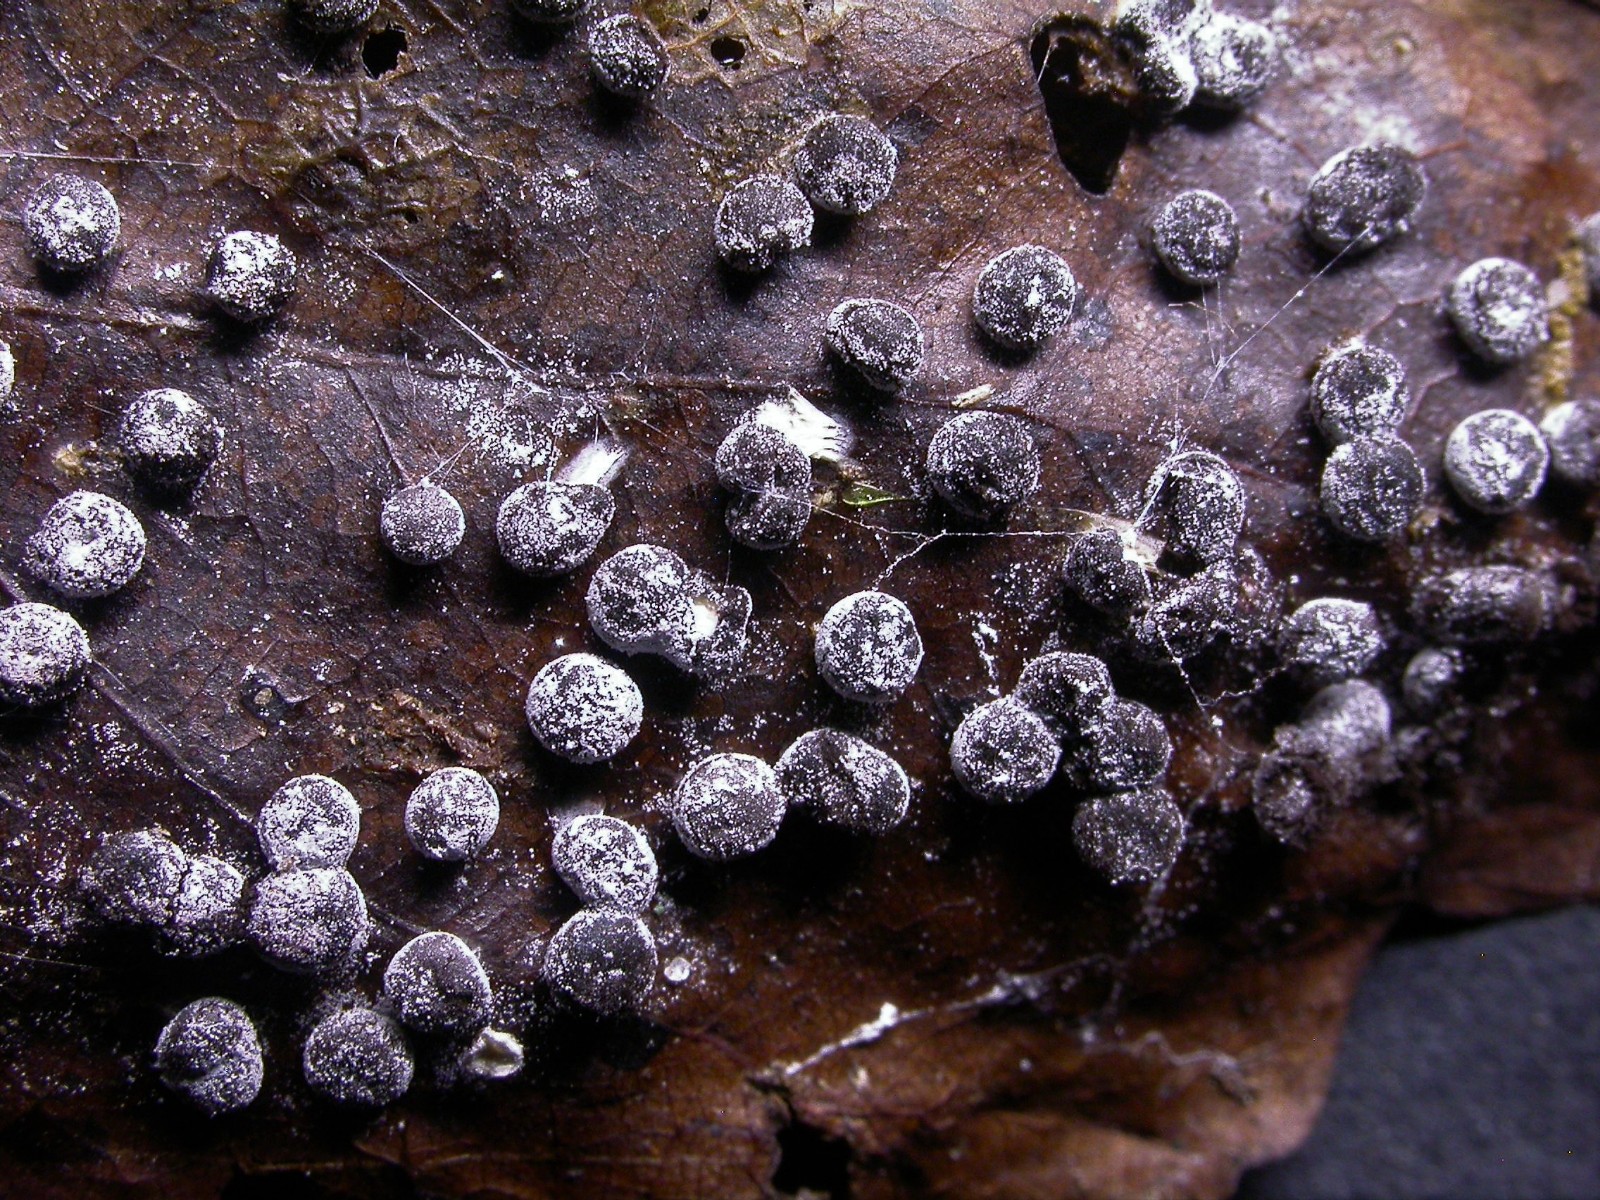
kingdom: Protozoa
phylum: Mycetozoa
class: Myxomycetes
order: Physarales
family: Didymiaceae
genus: Didymium
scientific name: Didymium squamulosum
